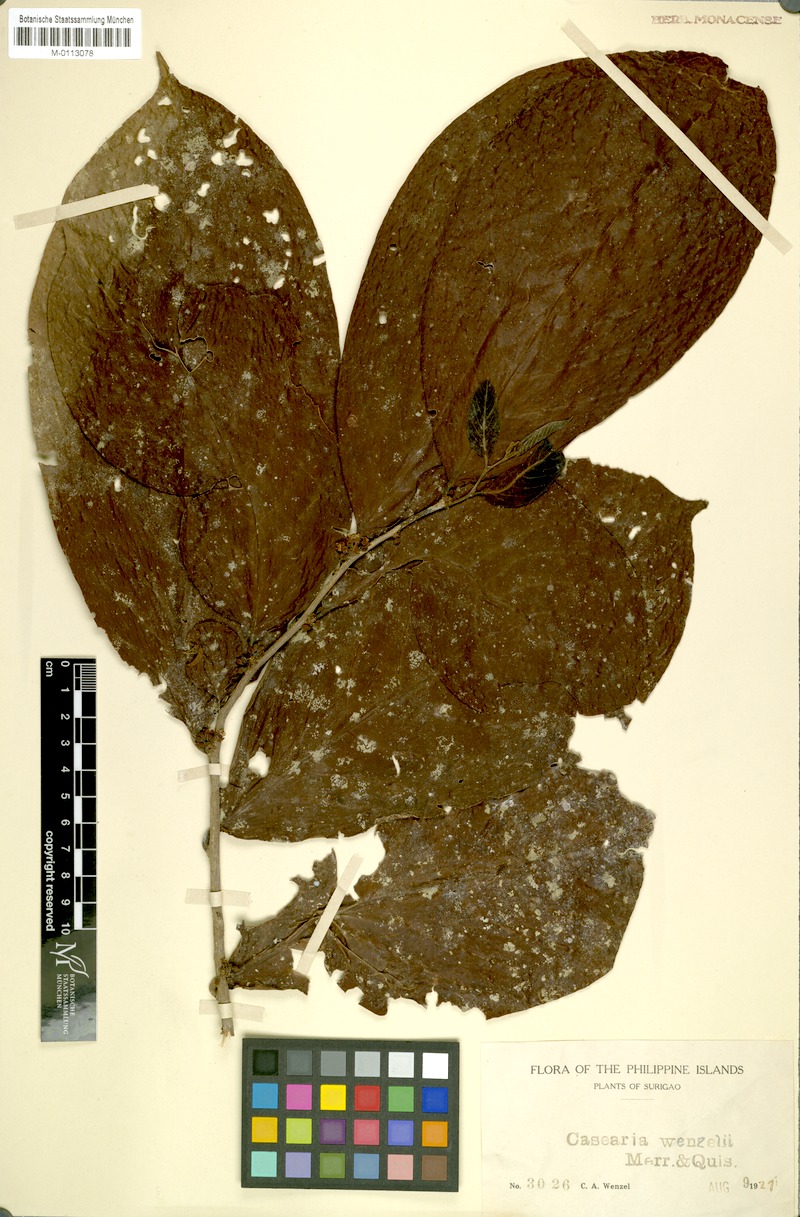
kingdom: Plantae
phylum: Tracheophyta
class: Magnoliopsida
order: Malpighiales
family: Salicaceae
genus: Casearia
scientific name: Casearia phanerophlebia
